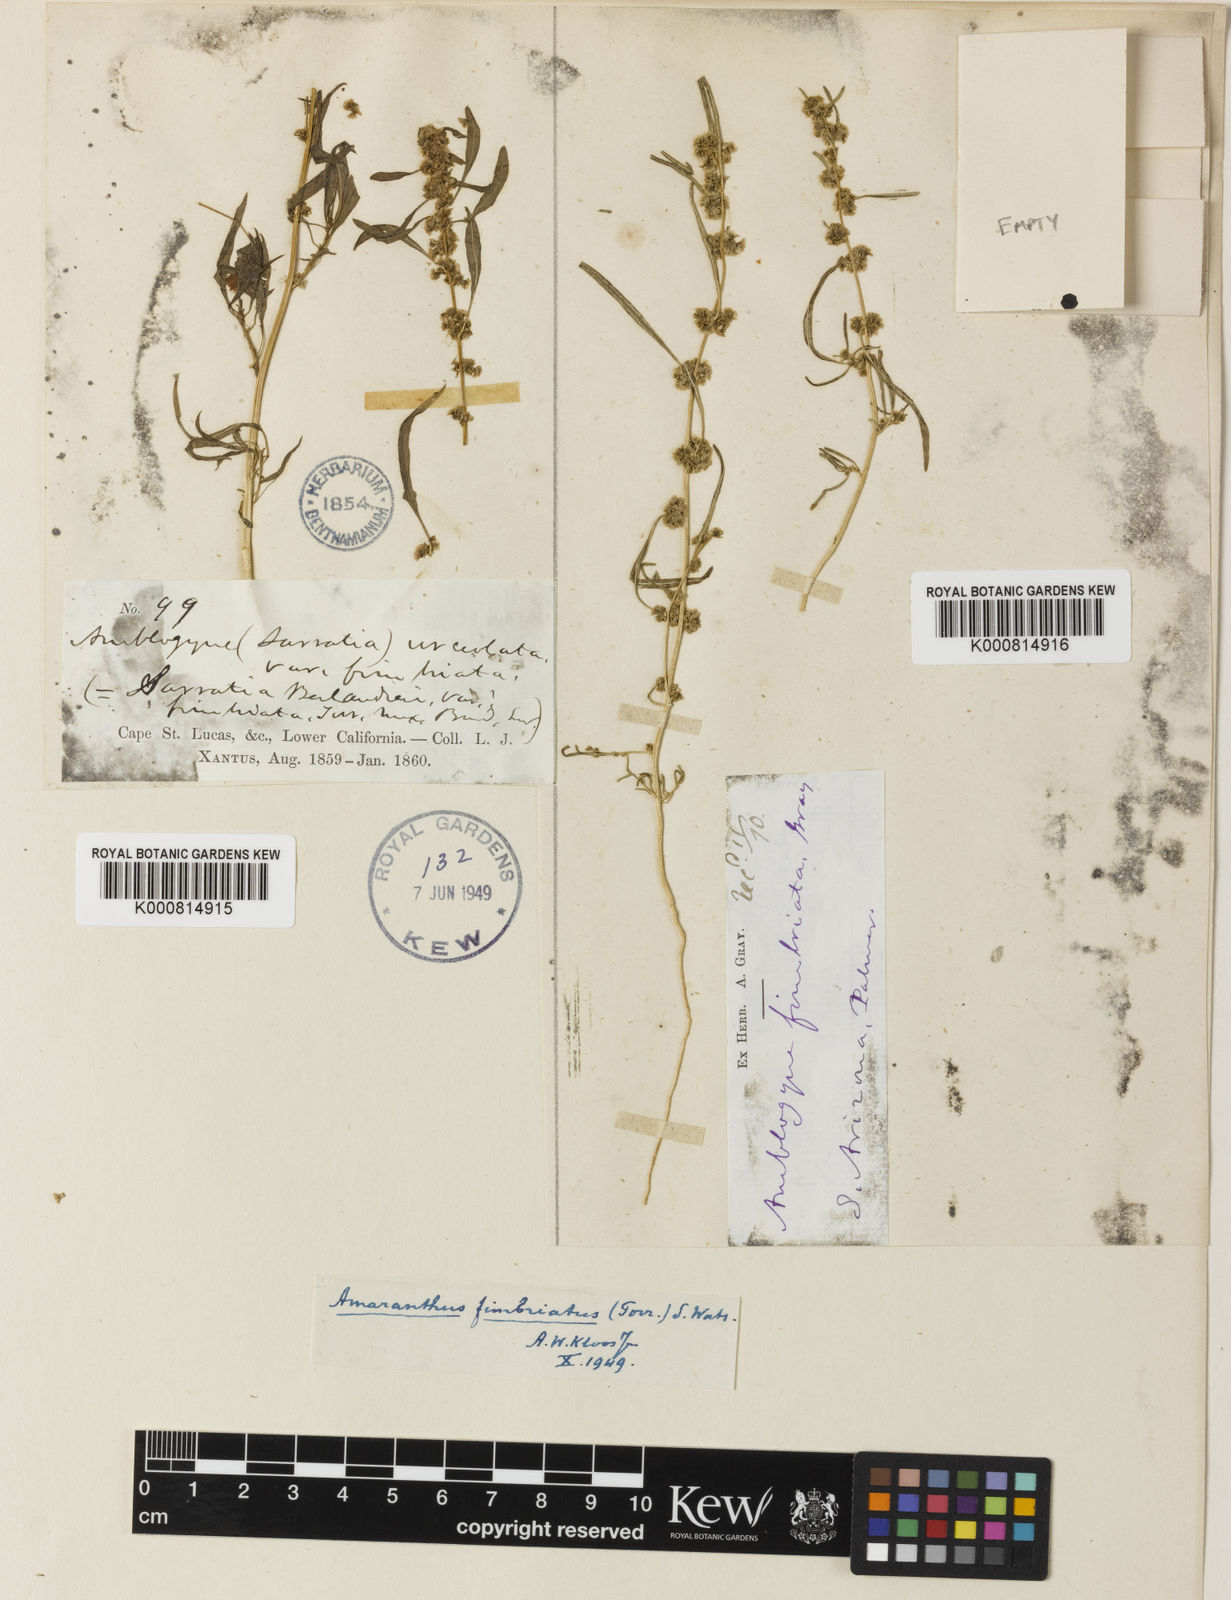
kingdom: Plantae
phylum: Tracheophyta
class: Magnoliopsida
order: Caryophyllales
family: Amaranthaceae
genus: Amaranthus
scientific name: Amaranthus
